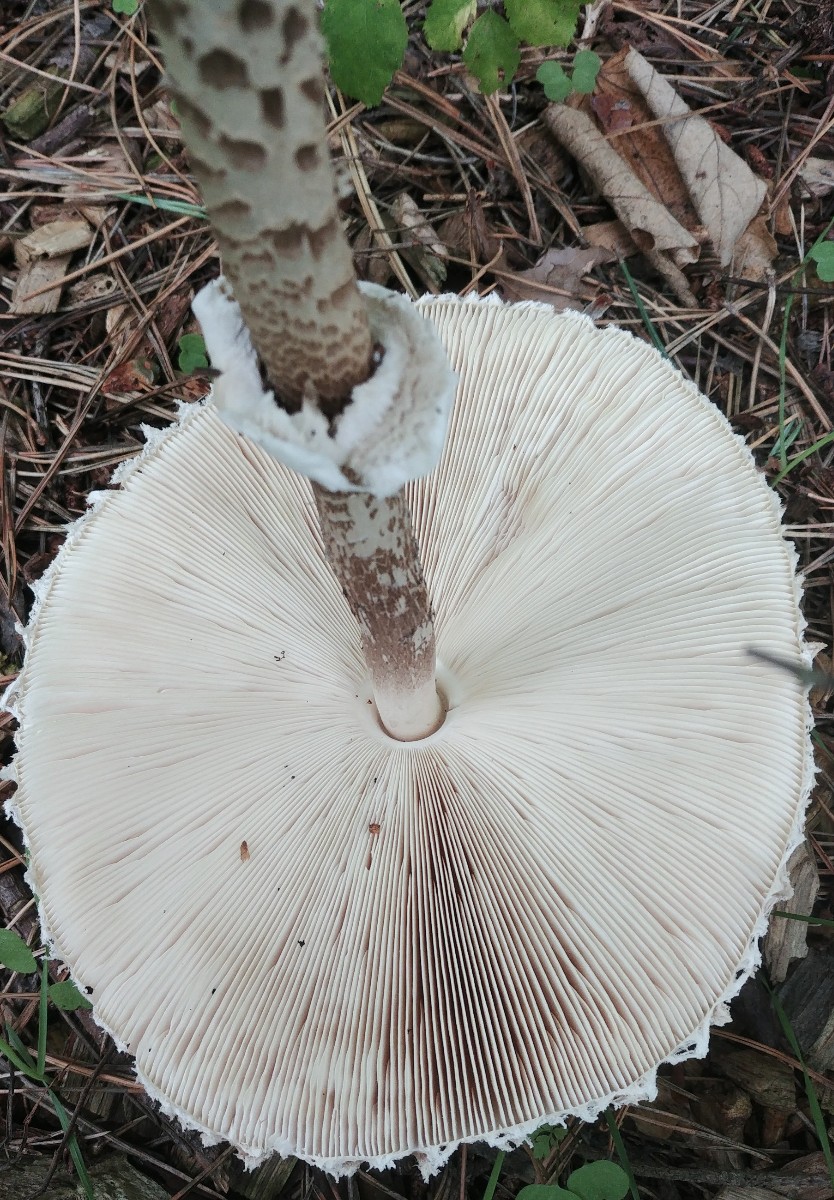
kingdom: Fungi
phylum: Basidiomycota
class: Agaricomycetes
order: Agaricales
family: Agaricaceae
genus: Macrolepiota
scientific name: Macrolepiota procera
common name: stor kæmpeparasolhat
